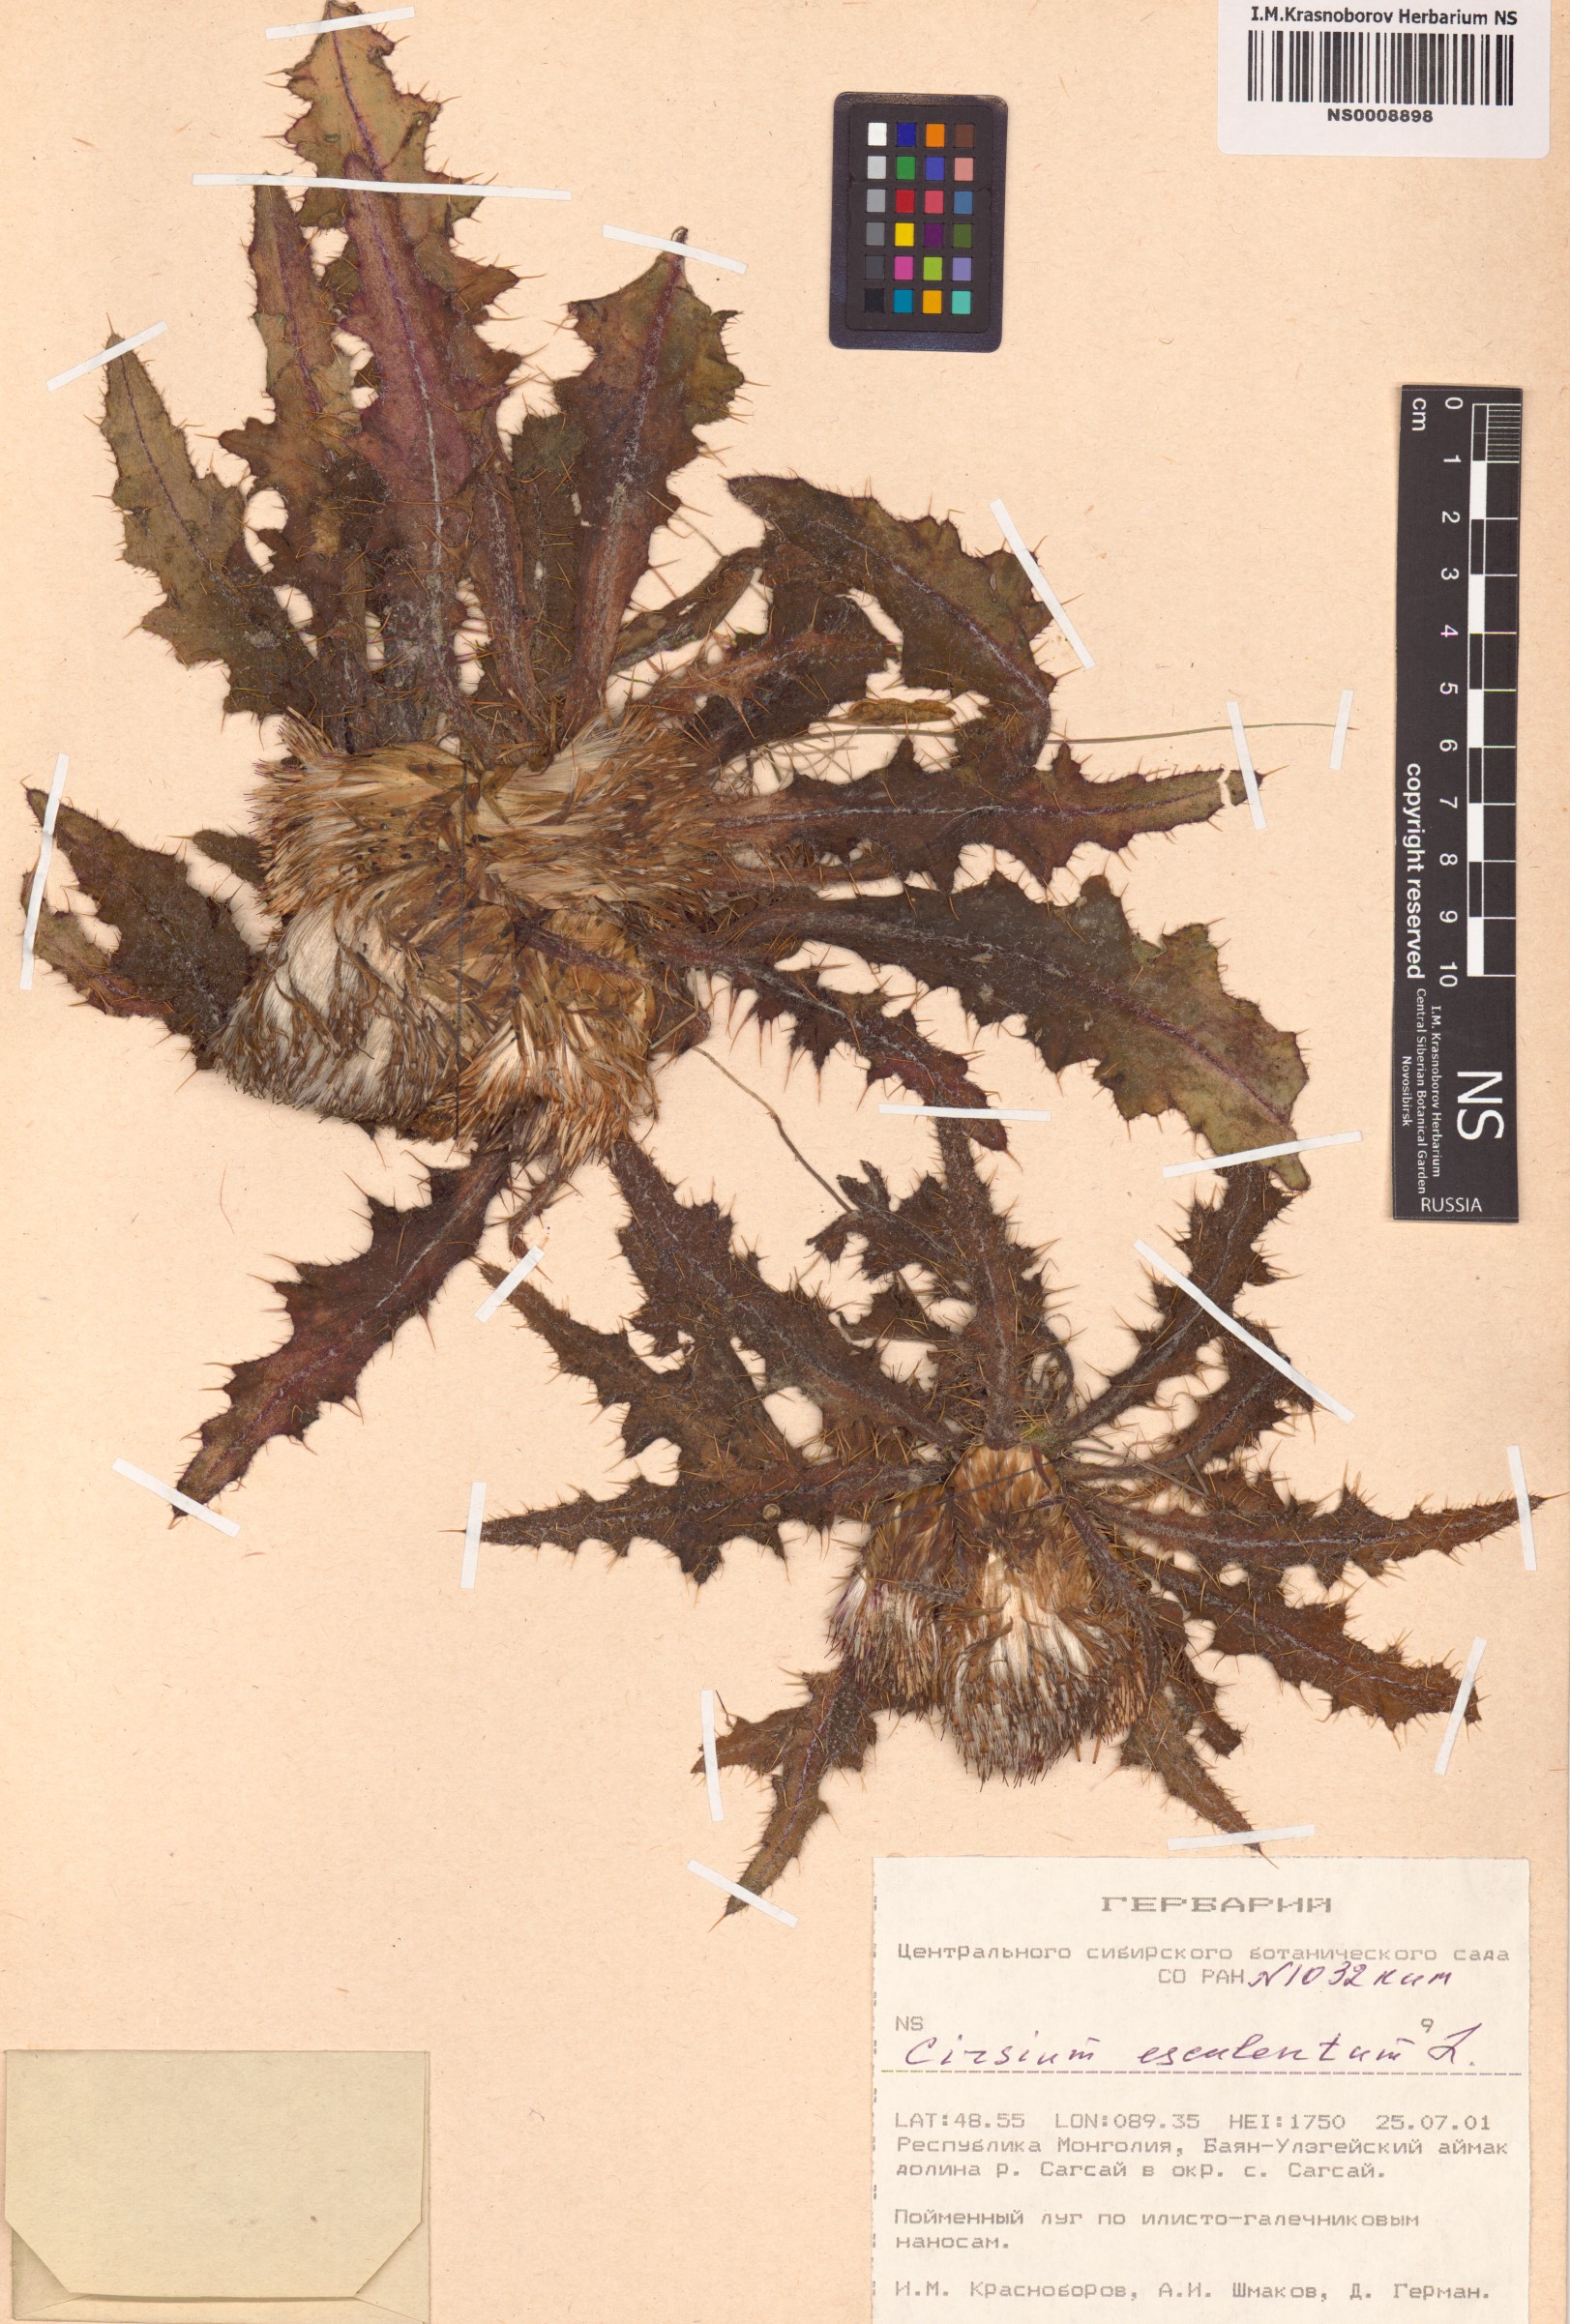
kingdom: Plantae
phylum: Tracheophyta
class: Magnoliopsida
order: Asterales
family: Asteraceae
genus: Cirsium
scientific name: Cirsium esculentum
